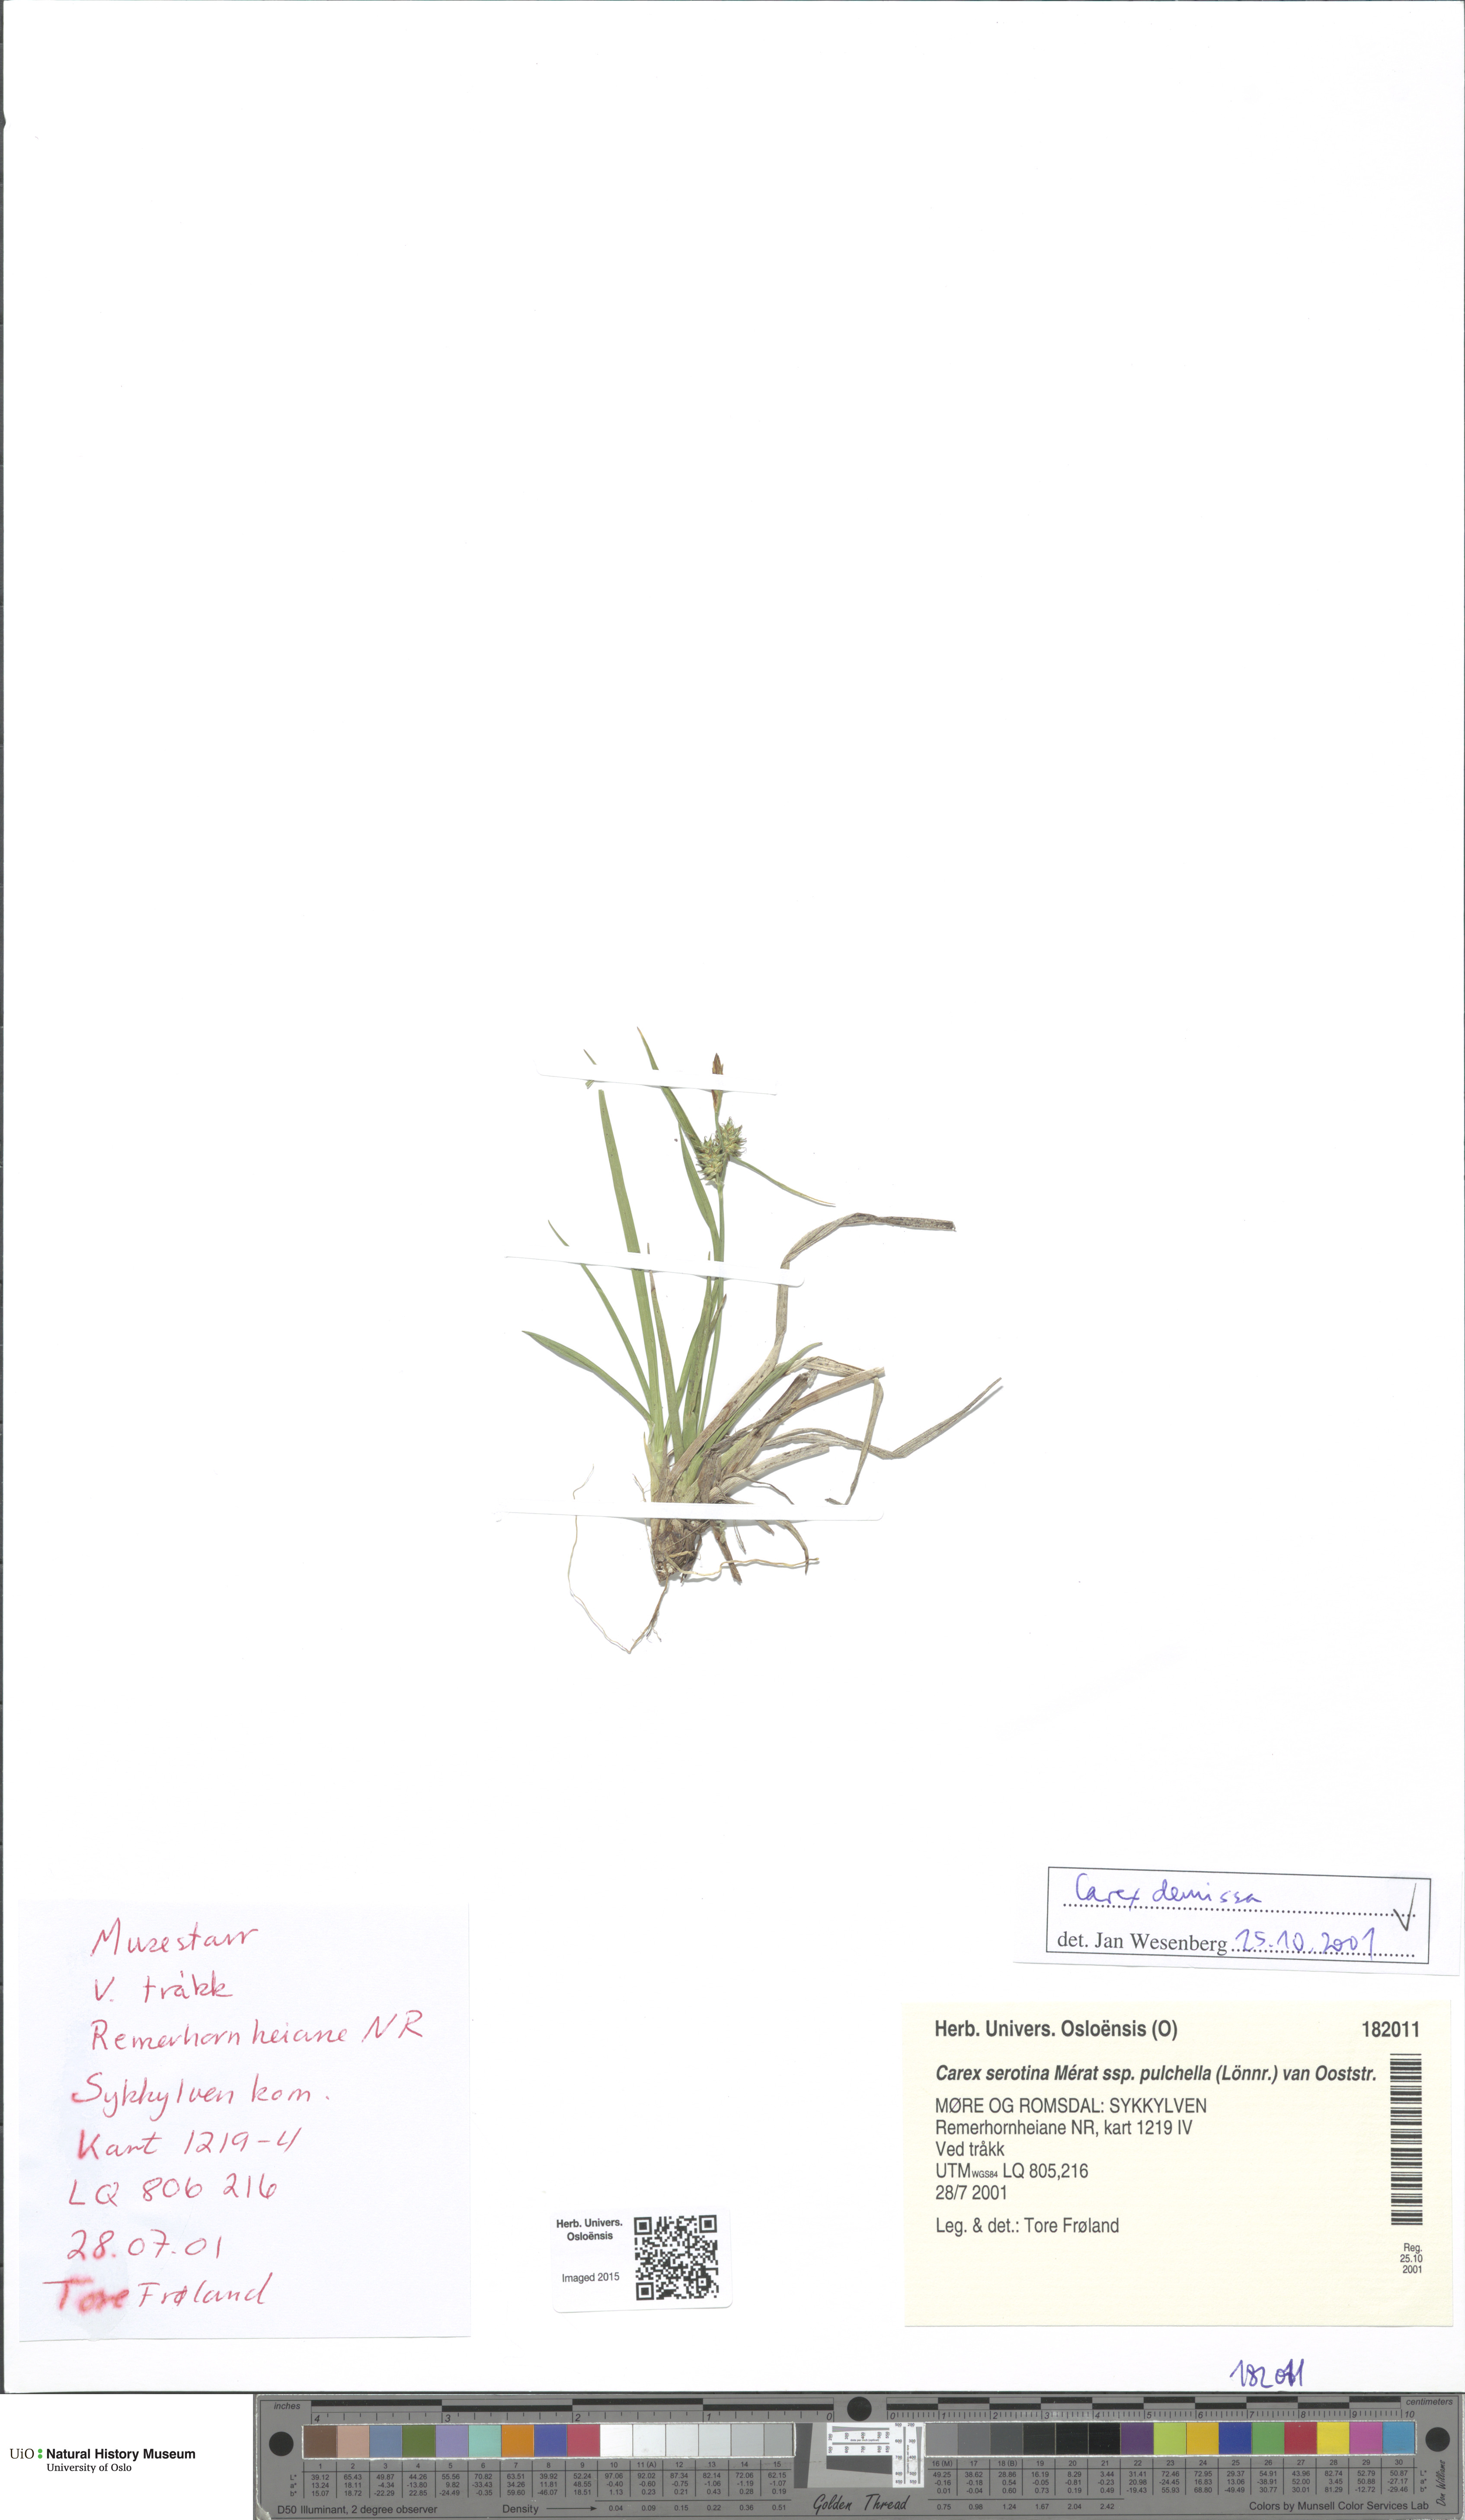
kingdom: Plantae
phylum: Tracheophyta
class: Liliopsida
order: Poales
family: Cyperaceae
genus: Carex
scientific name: Carex demissa
